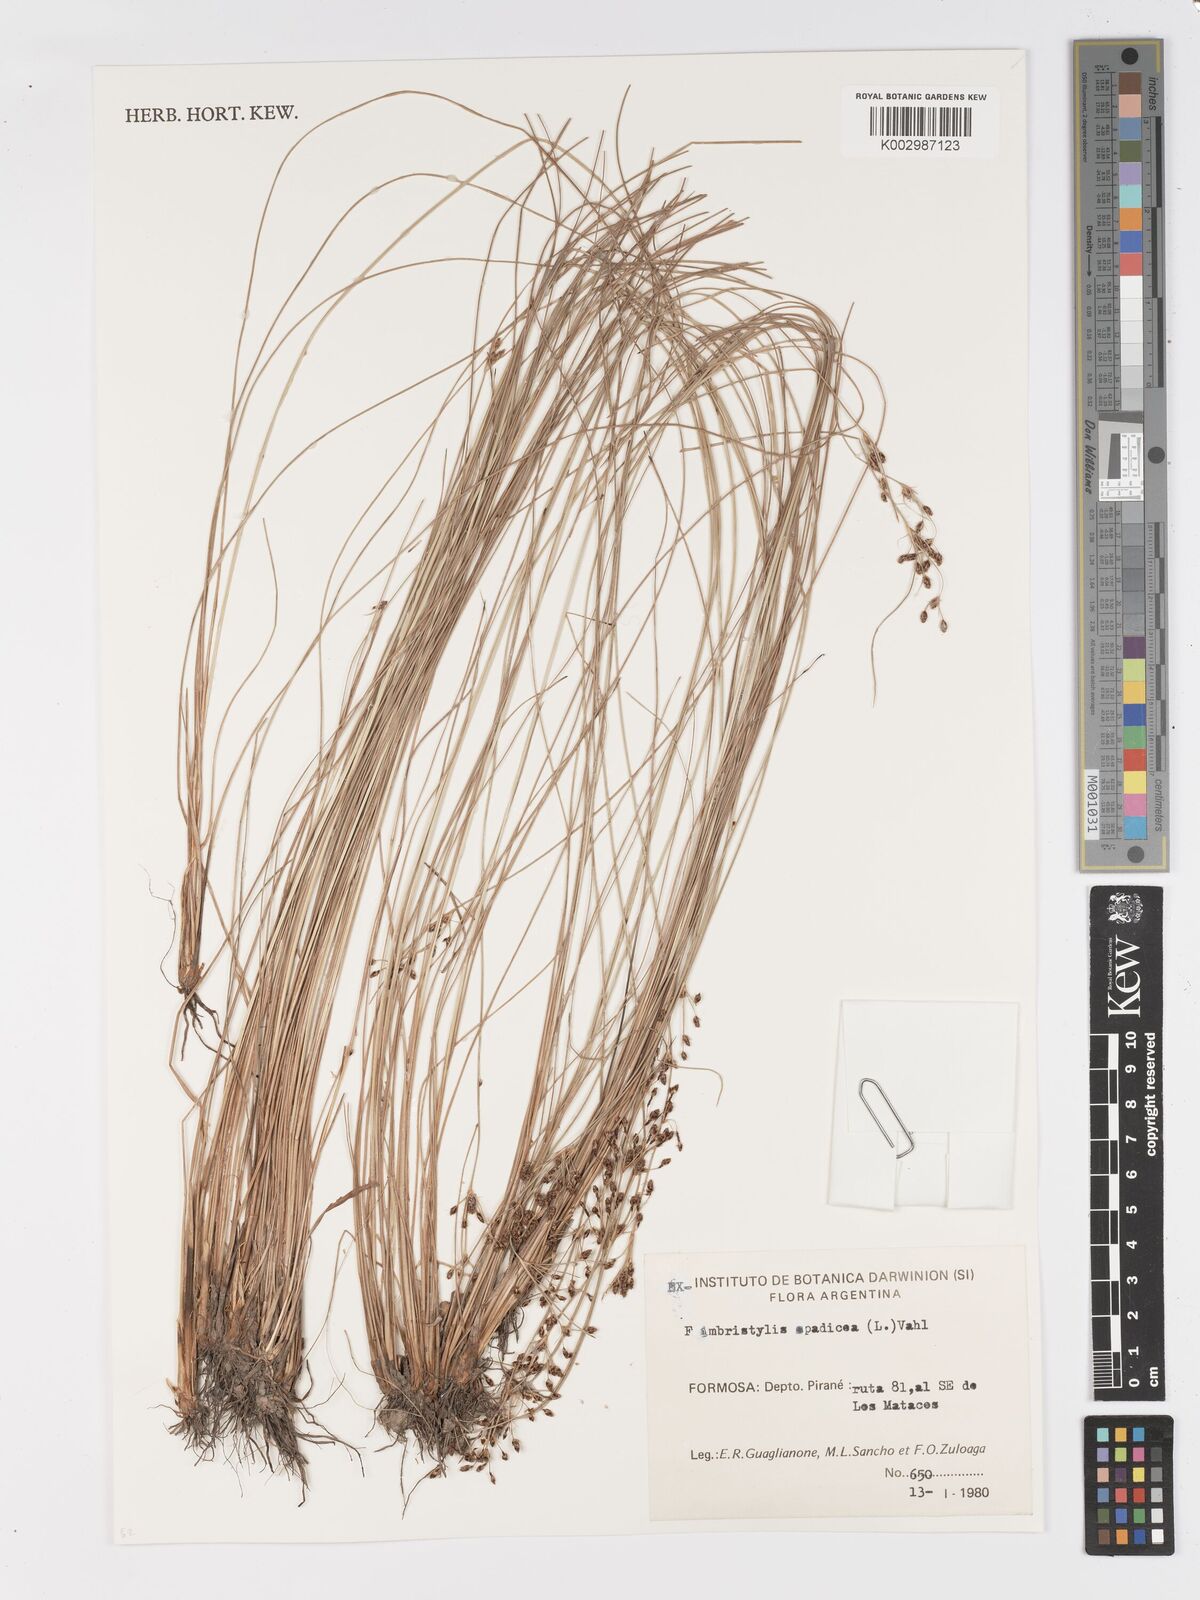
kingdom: Plantae
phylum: Tracheophyta
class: Liliopsida
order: Poales
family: Cyperaceae
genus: Fimbristylis
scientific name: Fimbristylis spadicea
